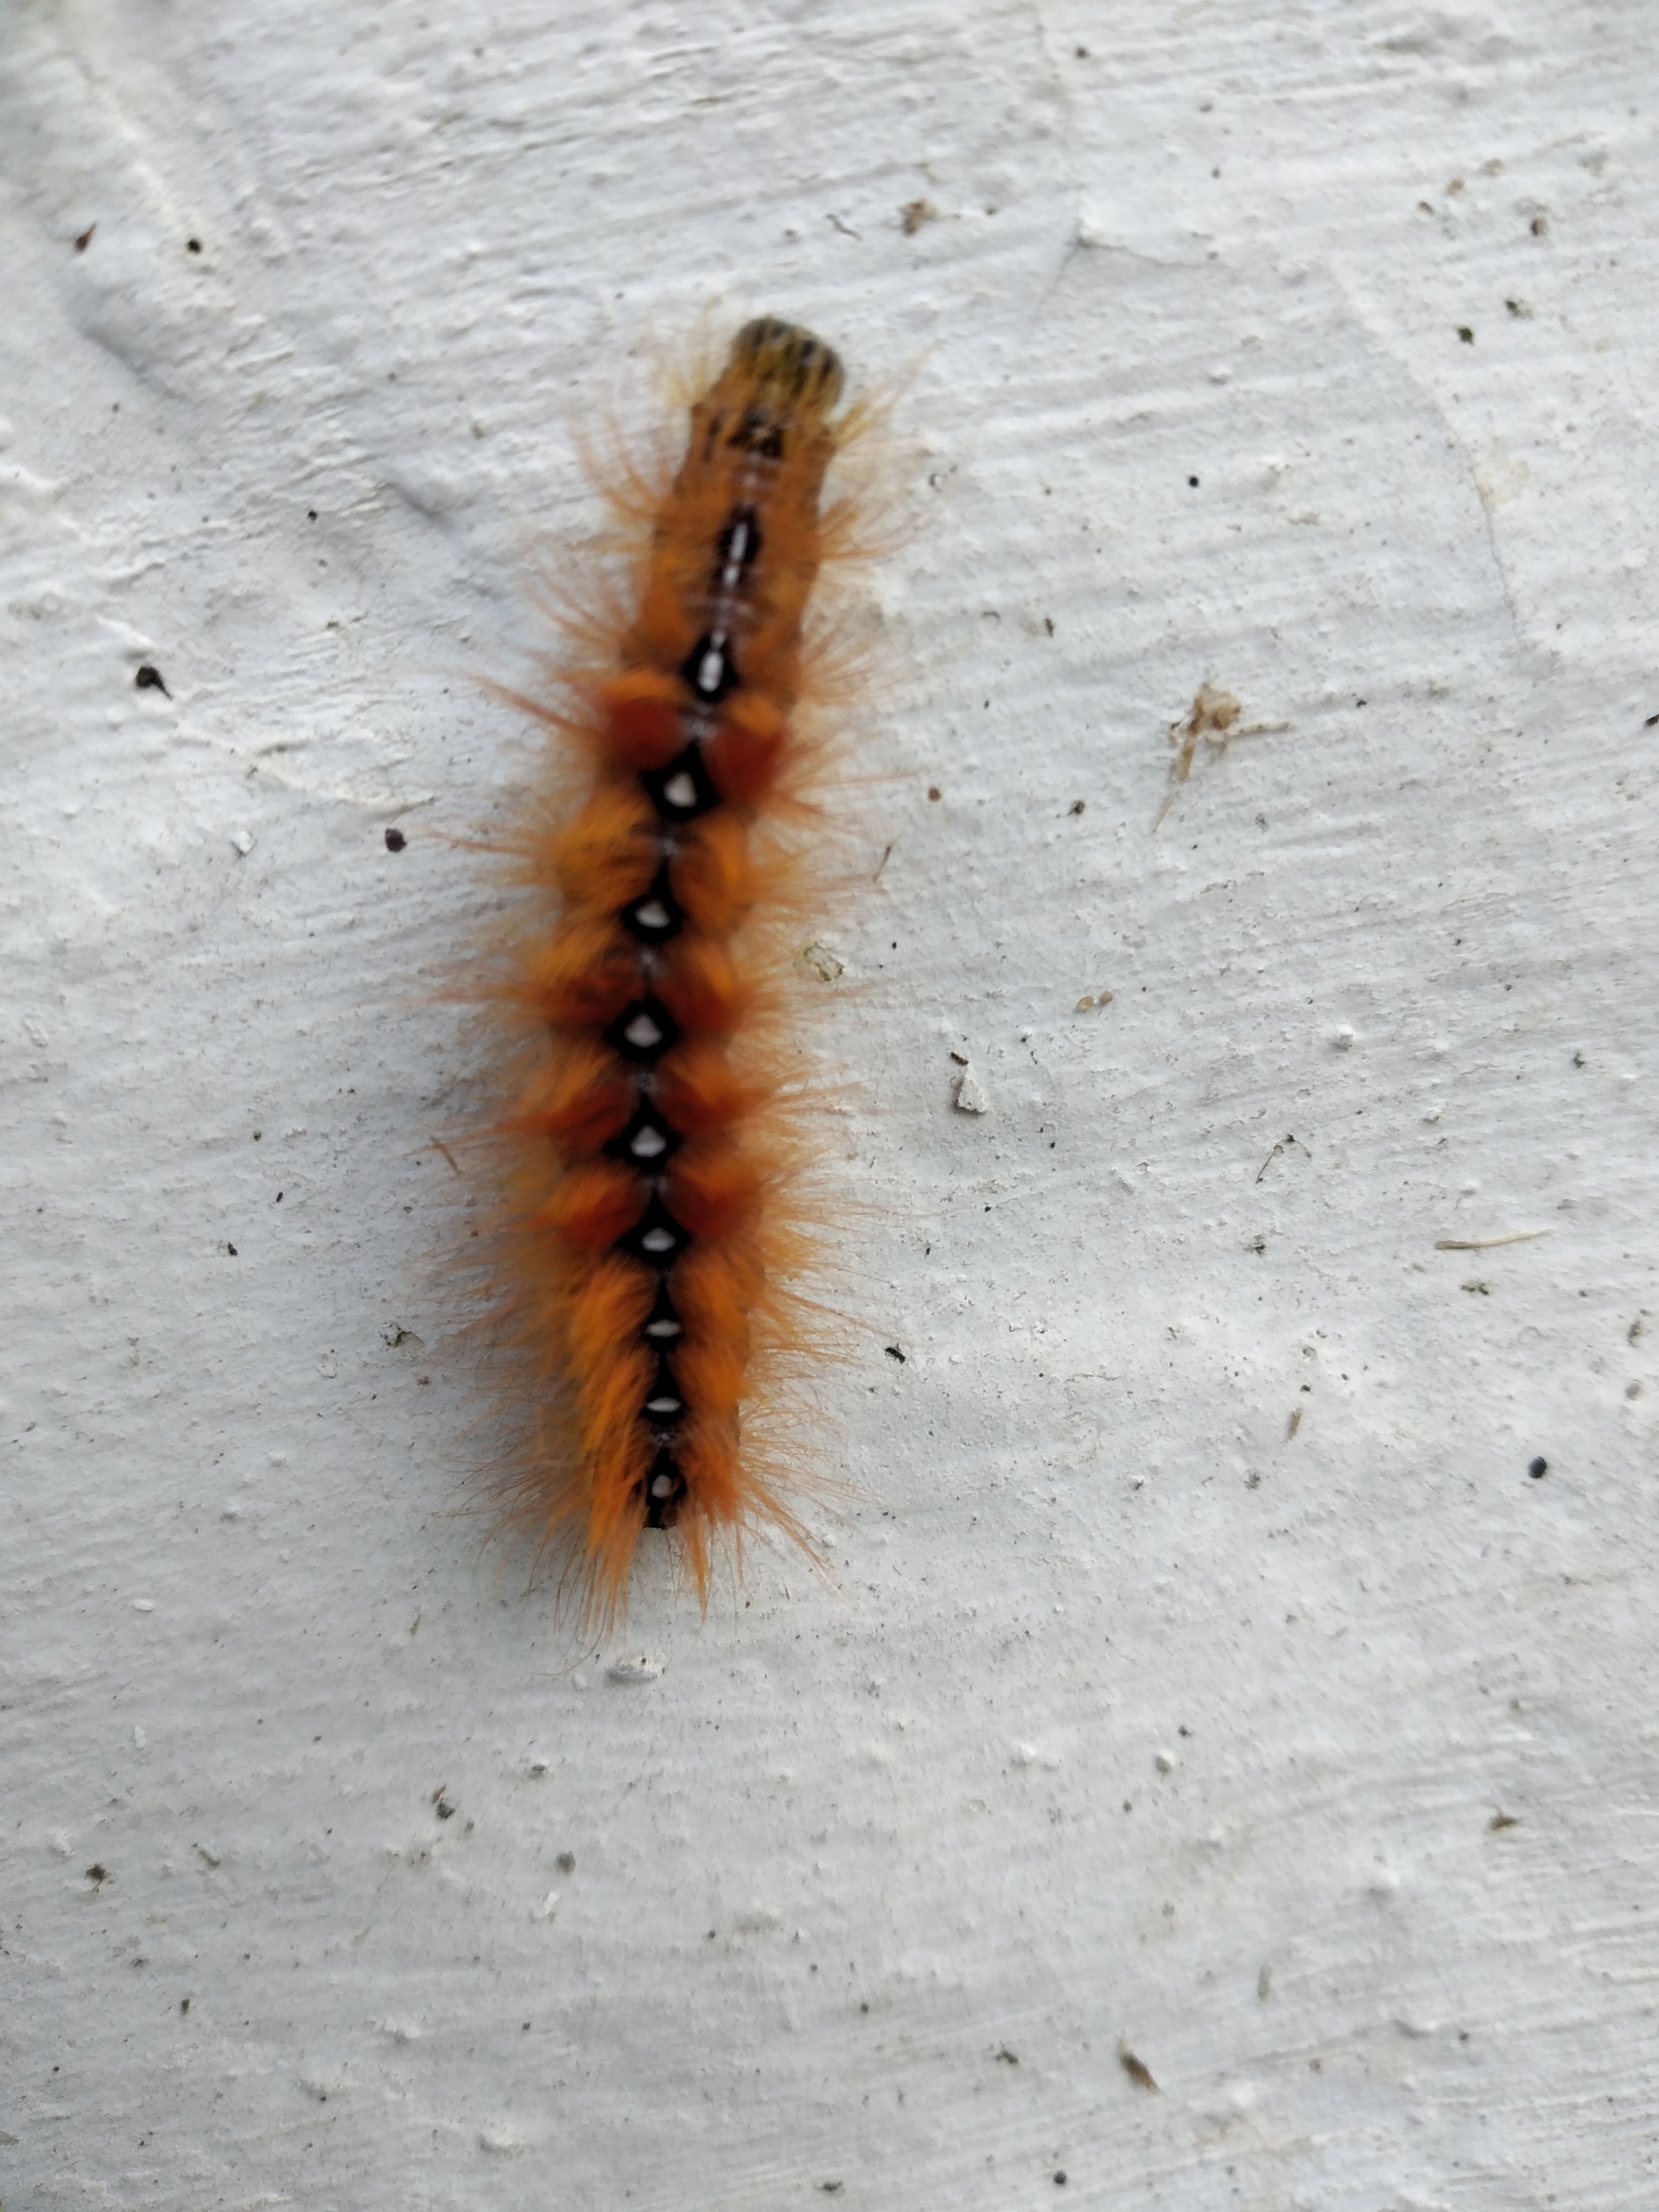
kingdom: Animalia
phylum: Arthropoda
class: Insecta
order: Lepidoptera
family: Noctuidae
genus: Acronicta
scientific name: Acronicta aceris
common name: Ahornugle
